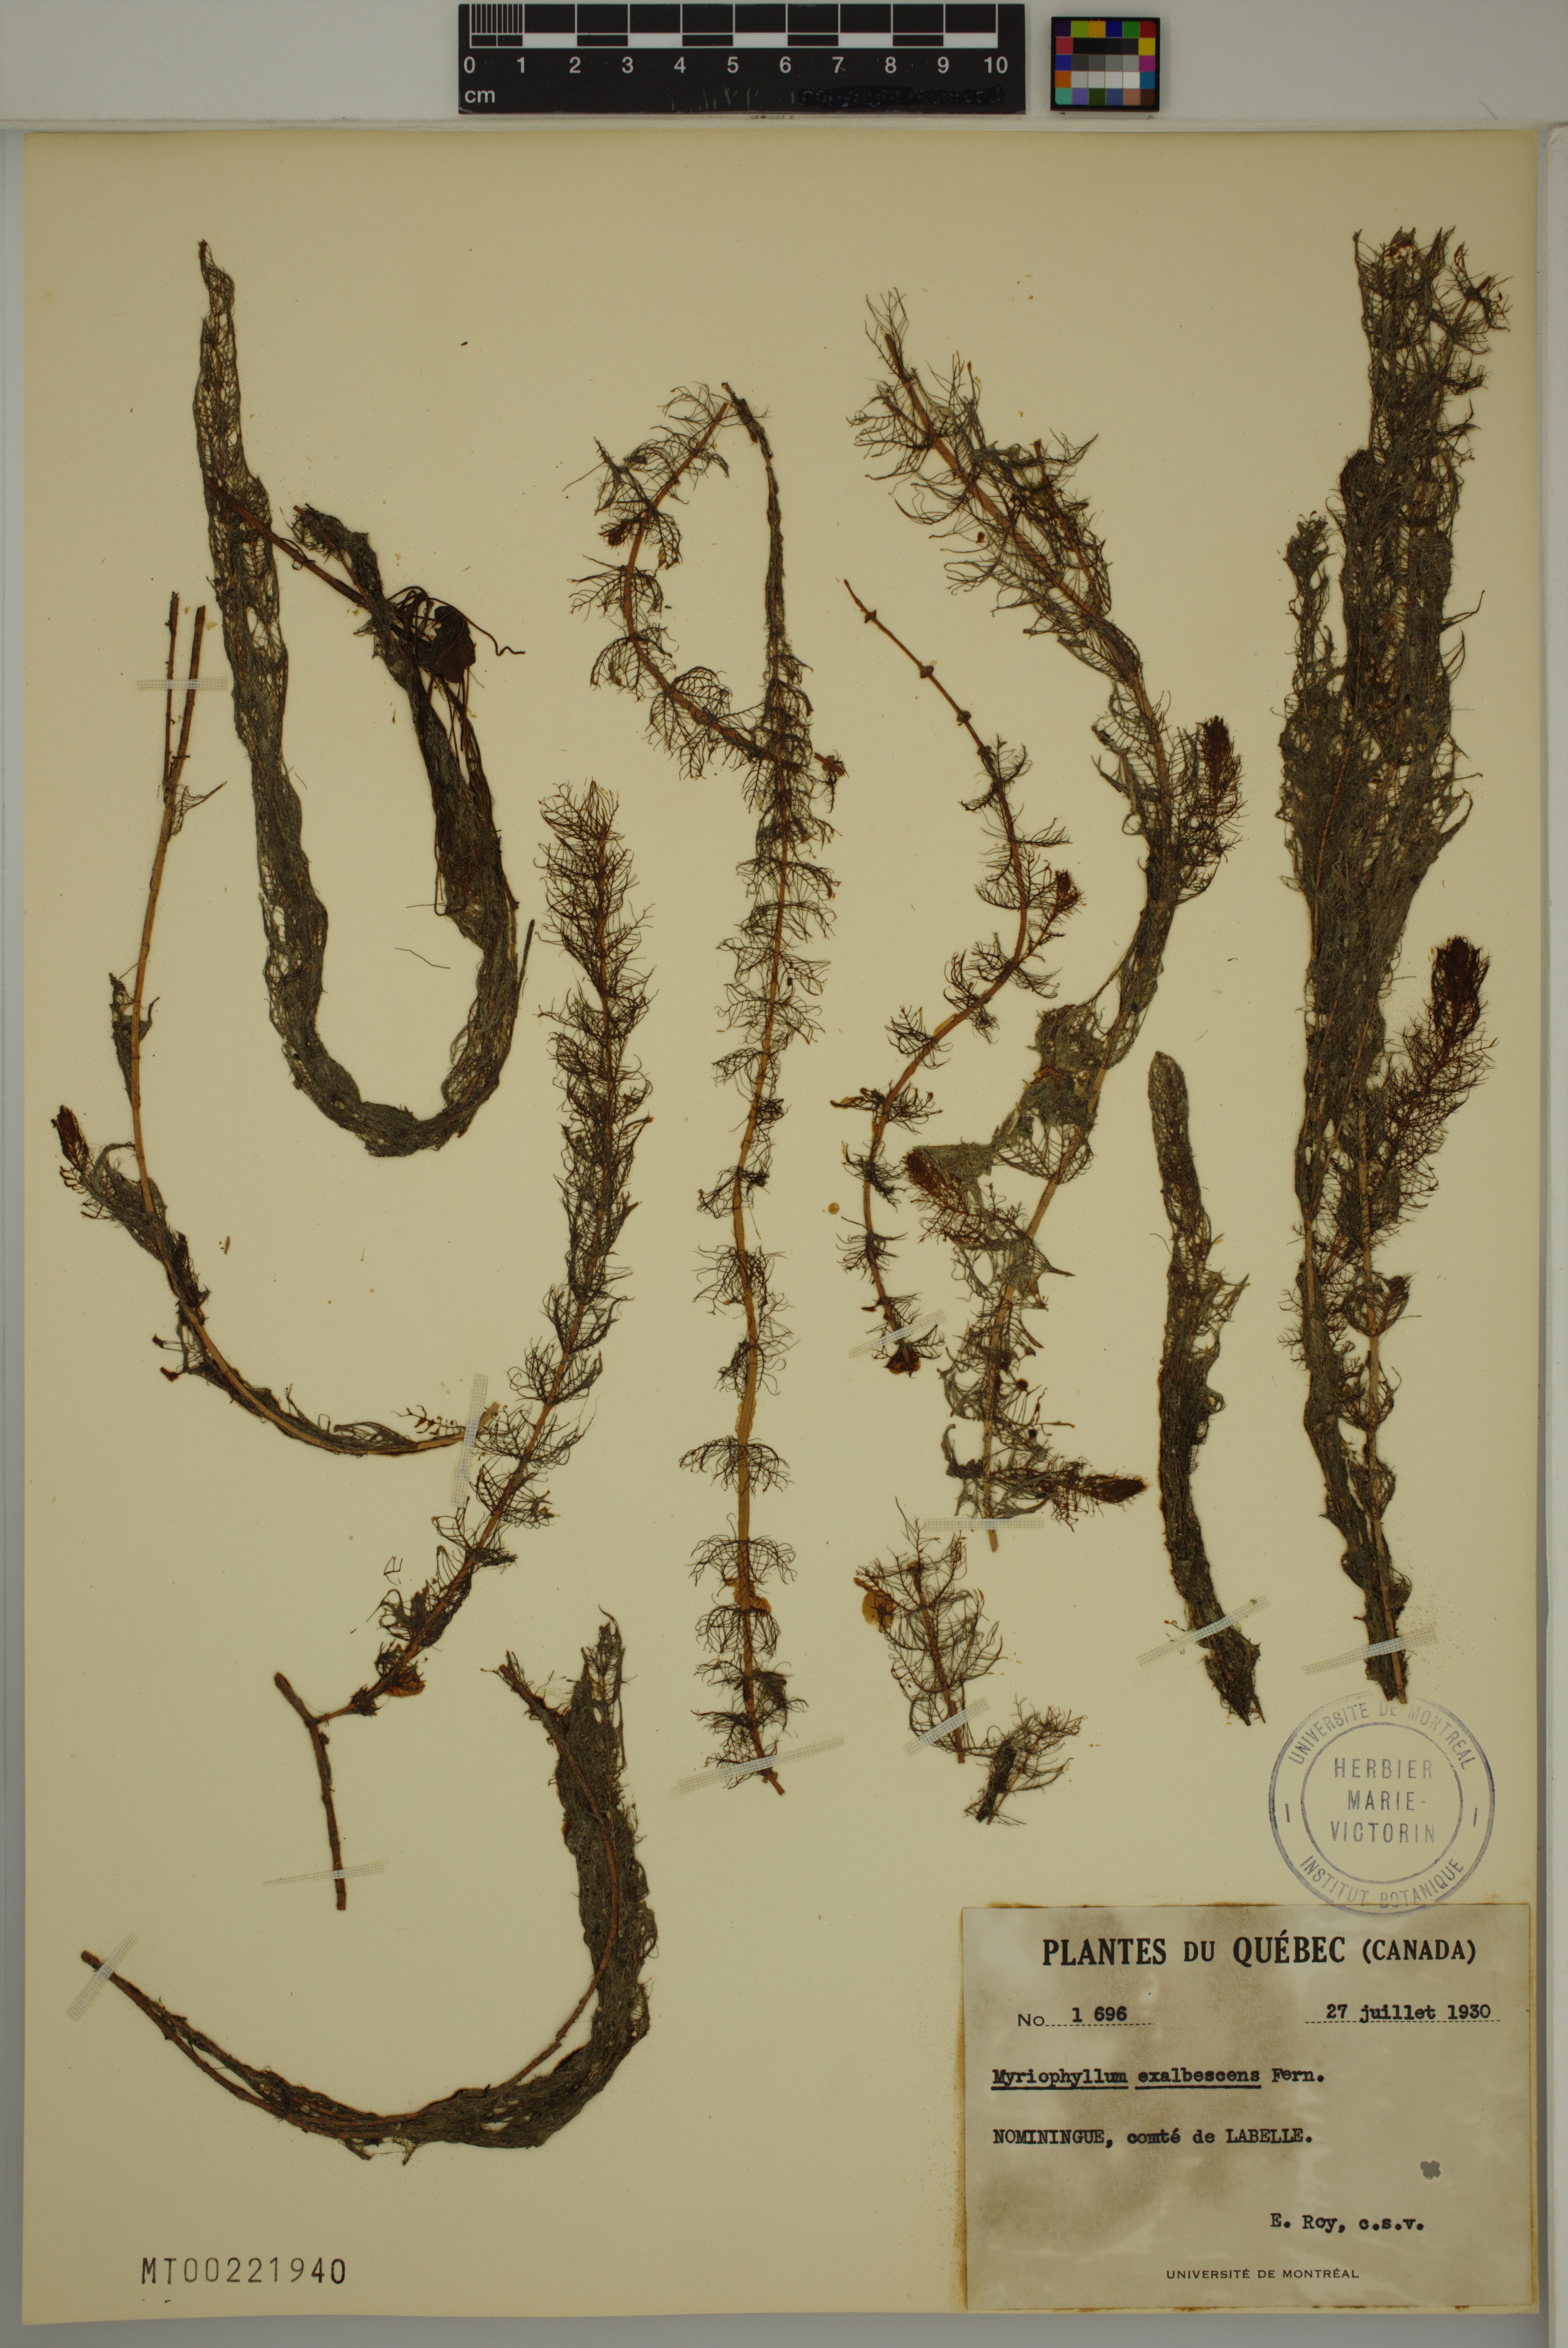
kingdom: Plantae
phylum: Tracheophyta
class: Magnoliopsida
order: Saxifragales
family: Haloragaceae
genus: Myriophyllum
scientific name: Myriophyllum sibiricum
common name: Siberian water-milfoil
